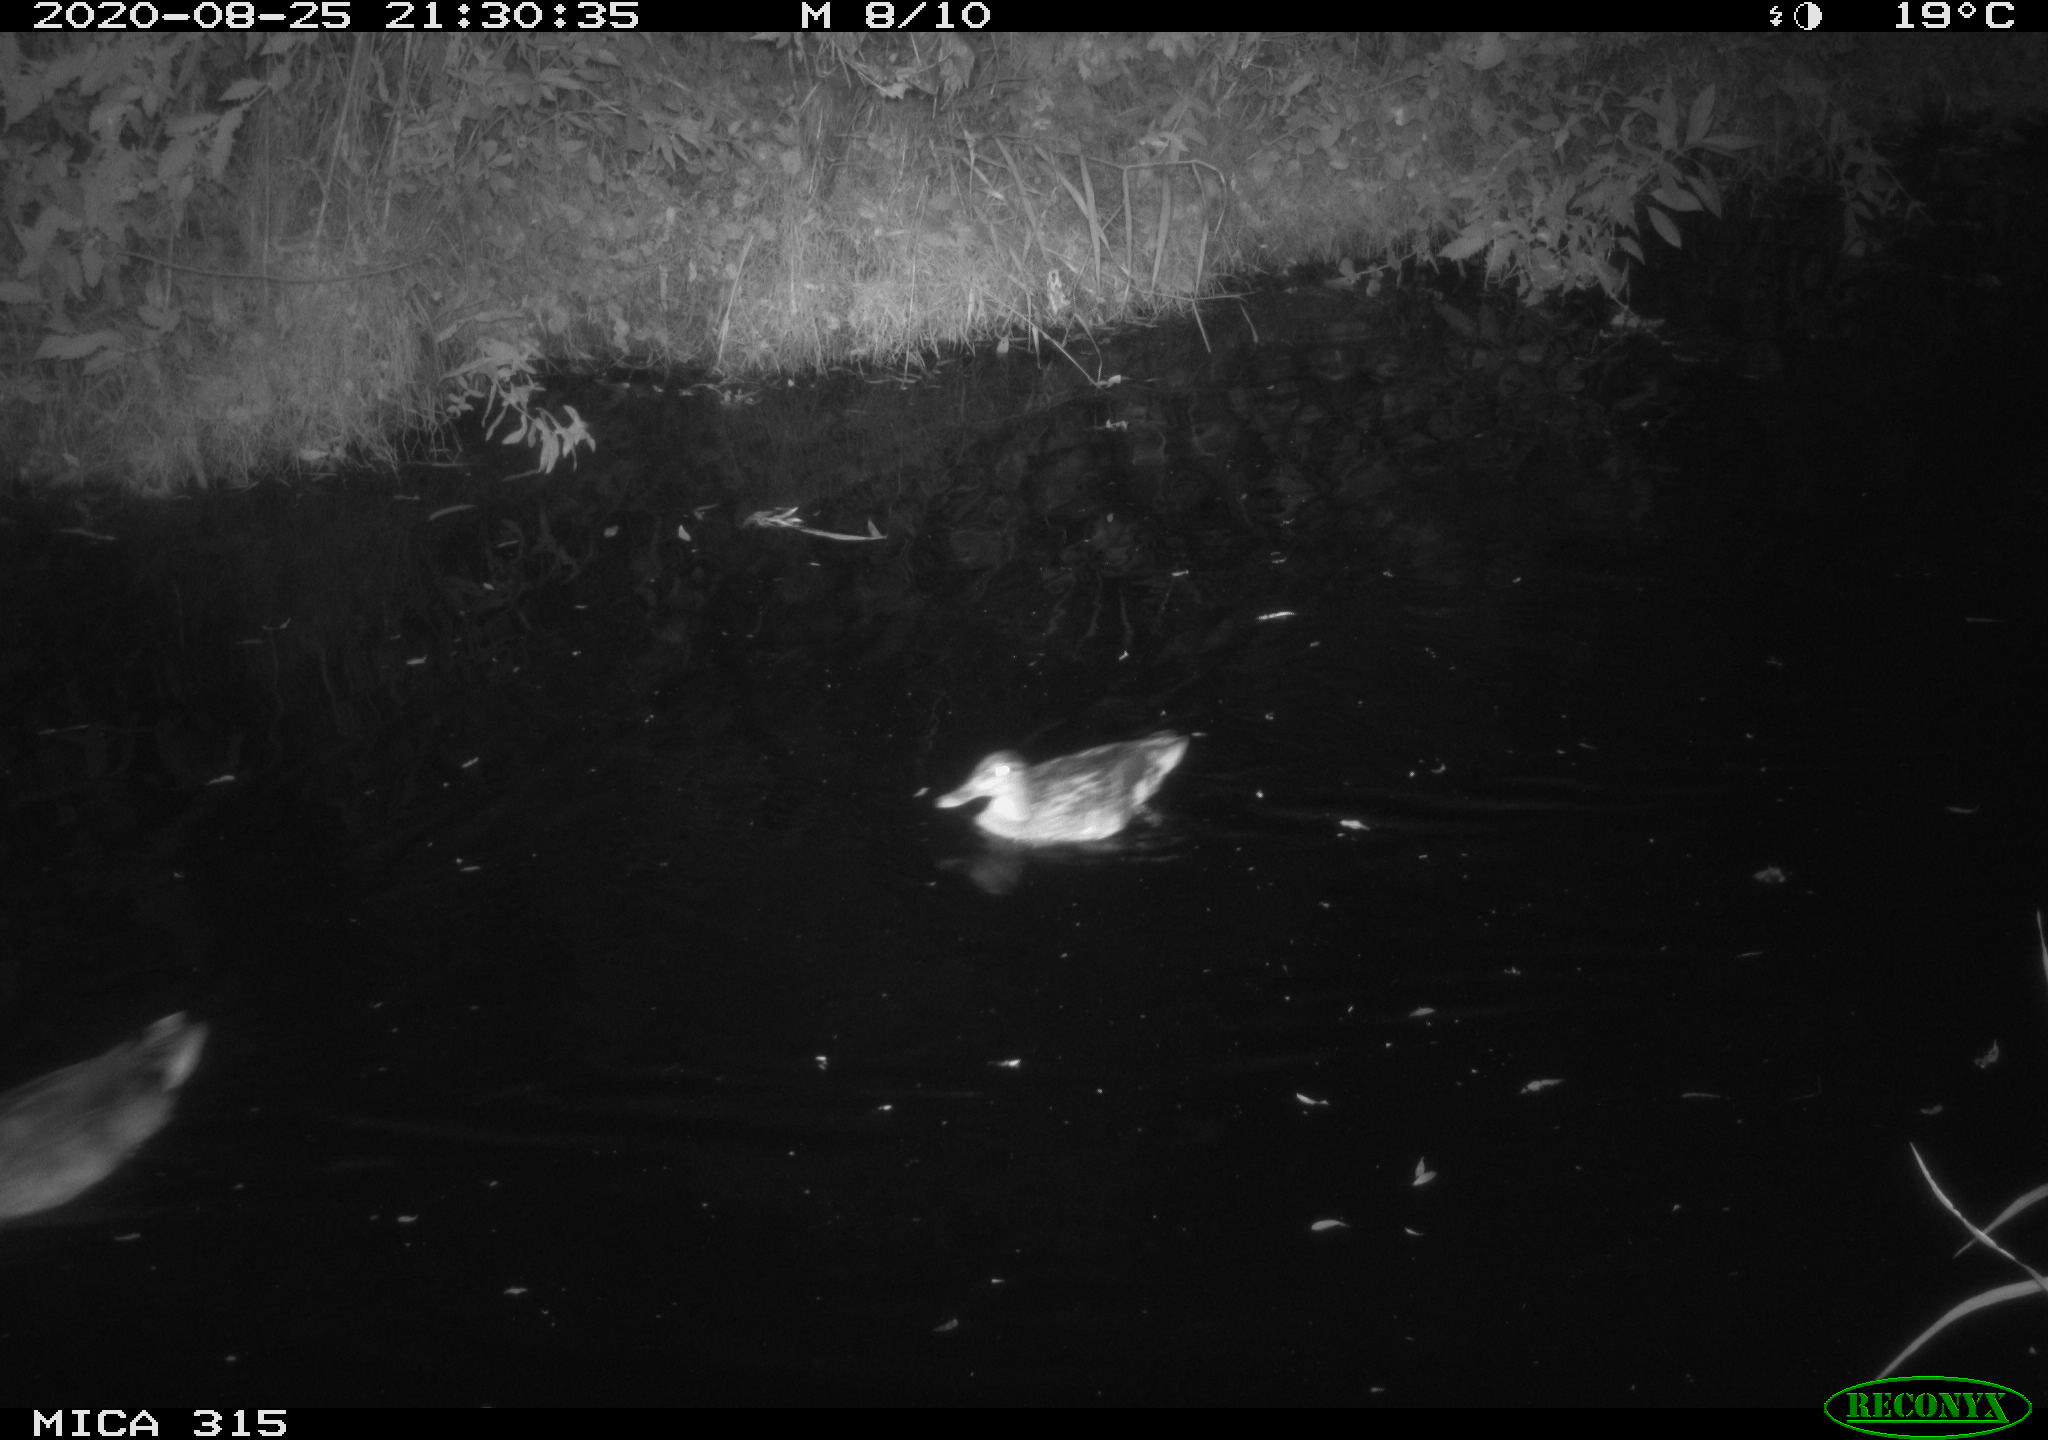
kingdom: Animalia
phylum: Chordata
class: Aves
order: Anseriformes
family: Anatidae
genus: Anas
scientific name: Anas platyrhynchos
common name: Mallard
